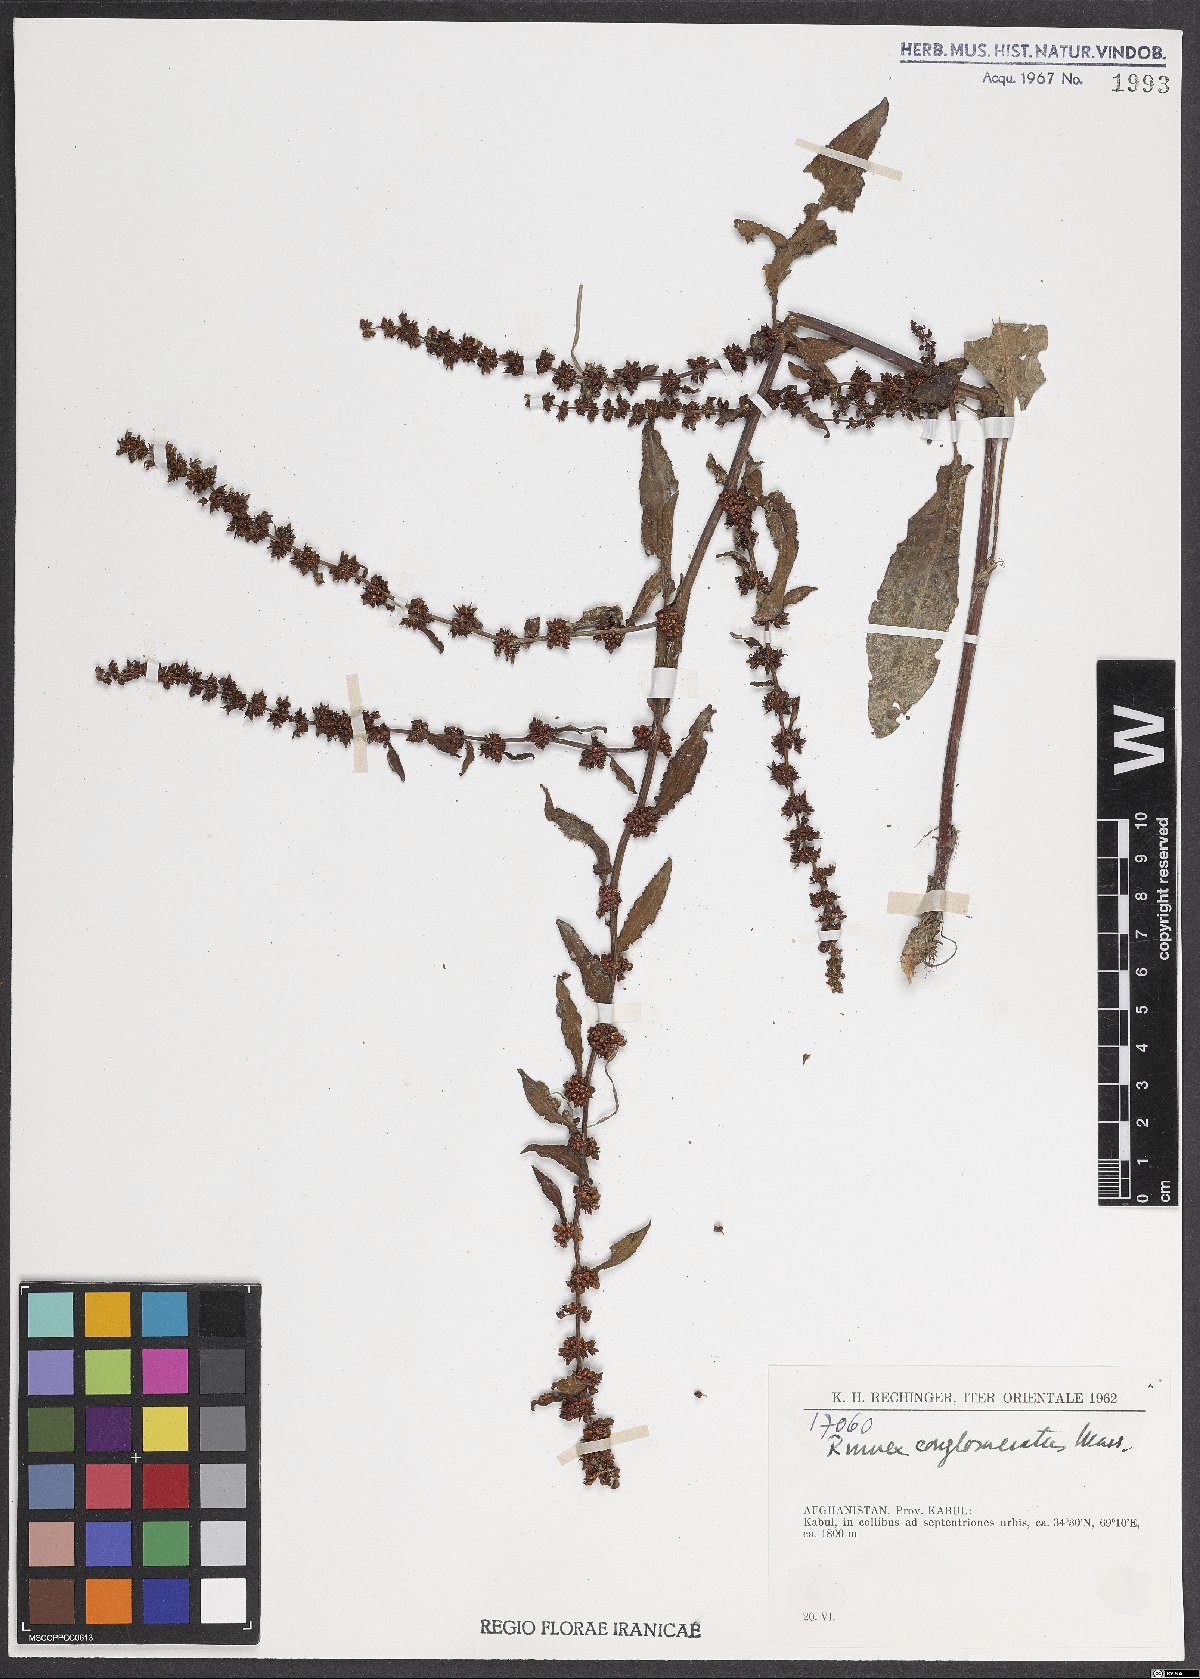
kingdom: Plantae
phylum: Tracheophyta
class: Magnoliopsida
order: Caryophyllales
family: Polygonaceae
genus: Rumex
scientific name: Rumex conglomeratus
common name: Clustered dock
